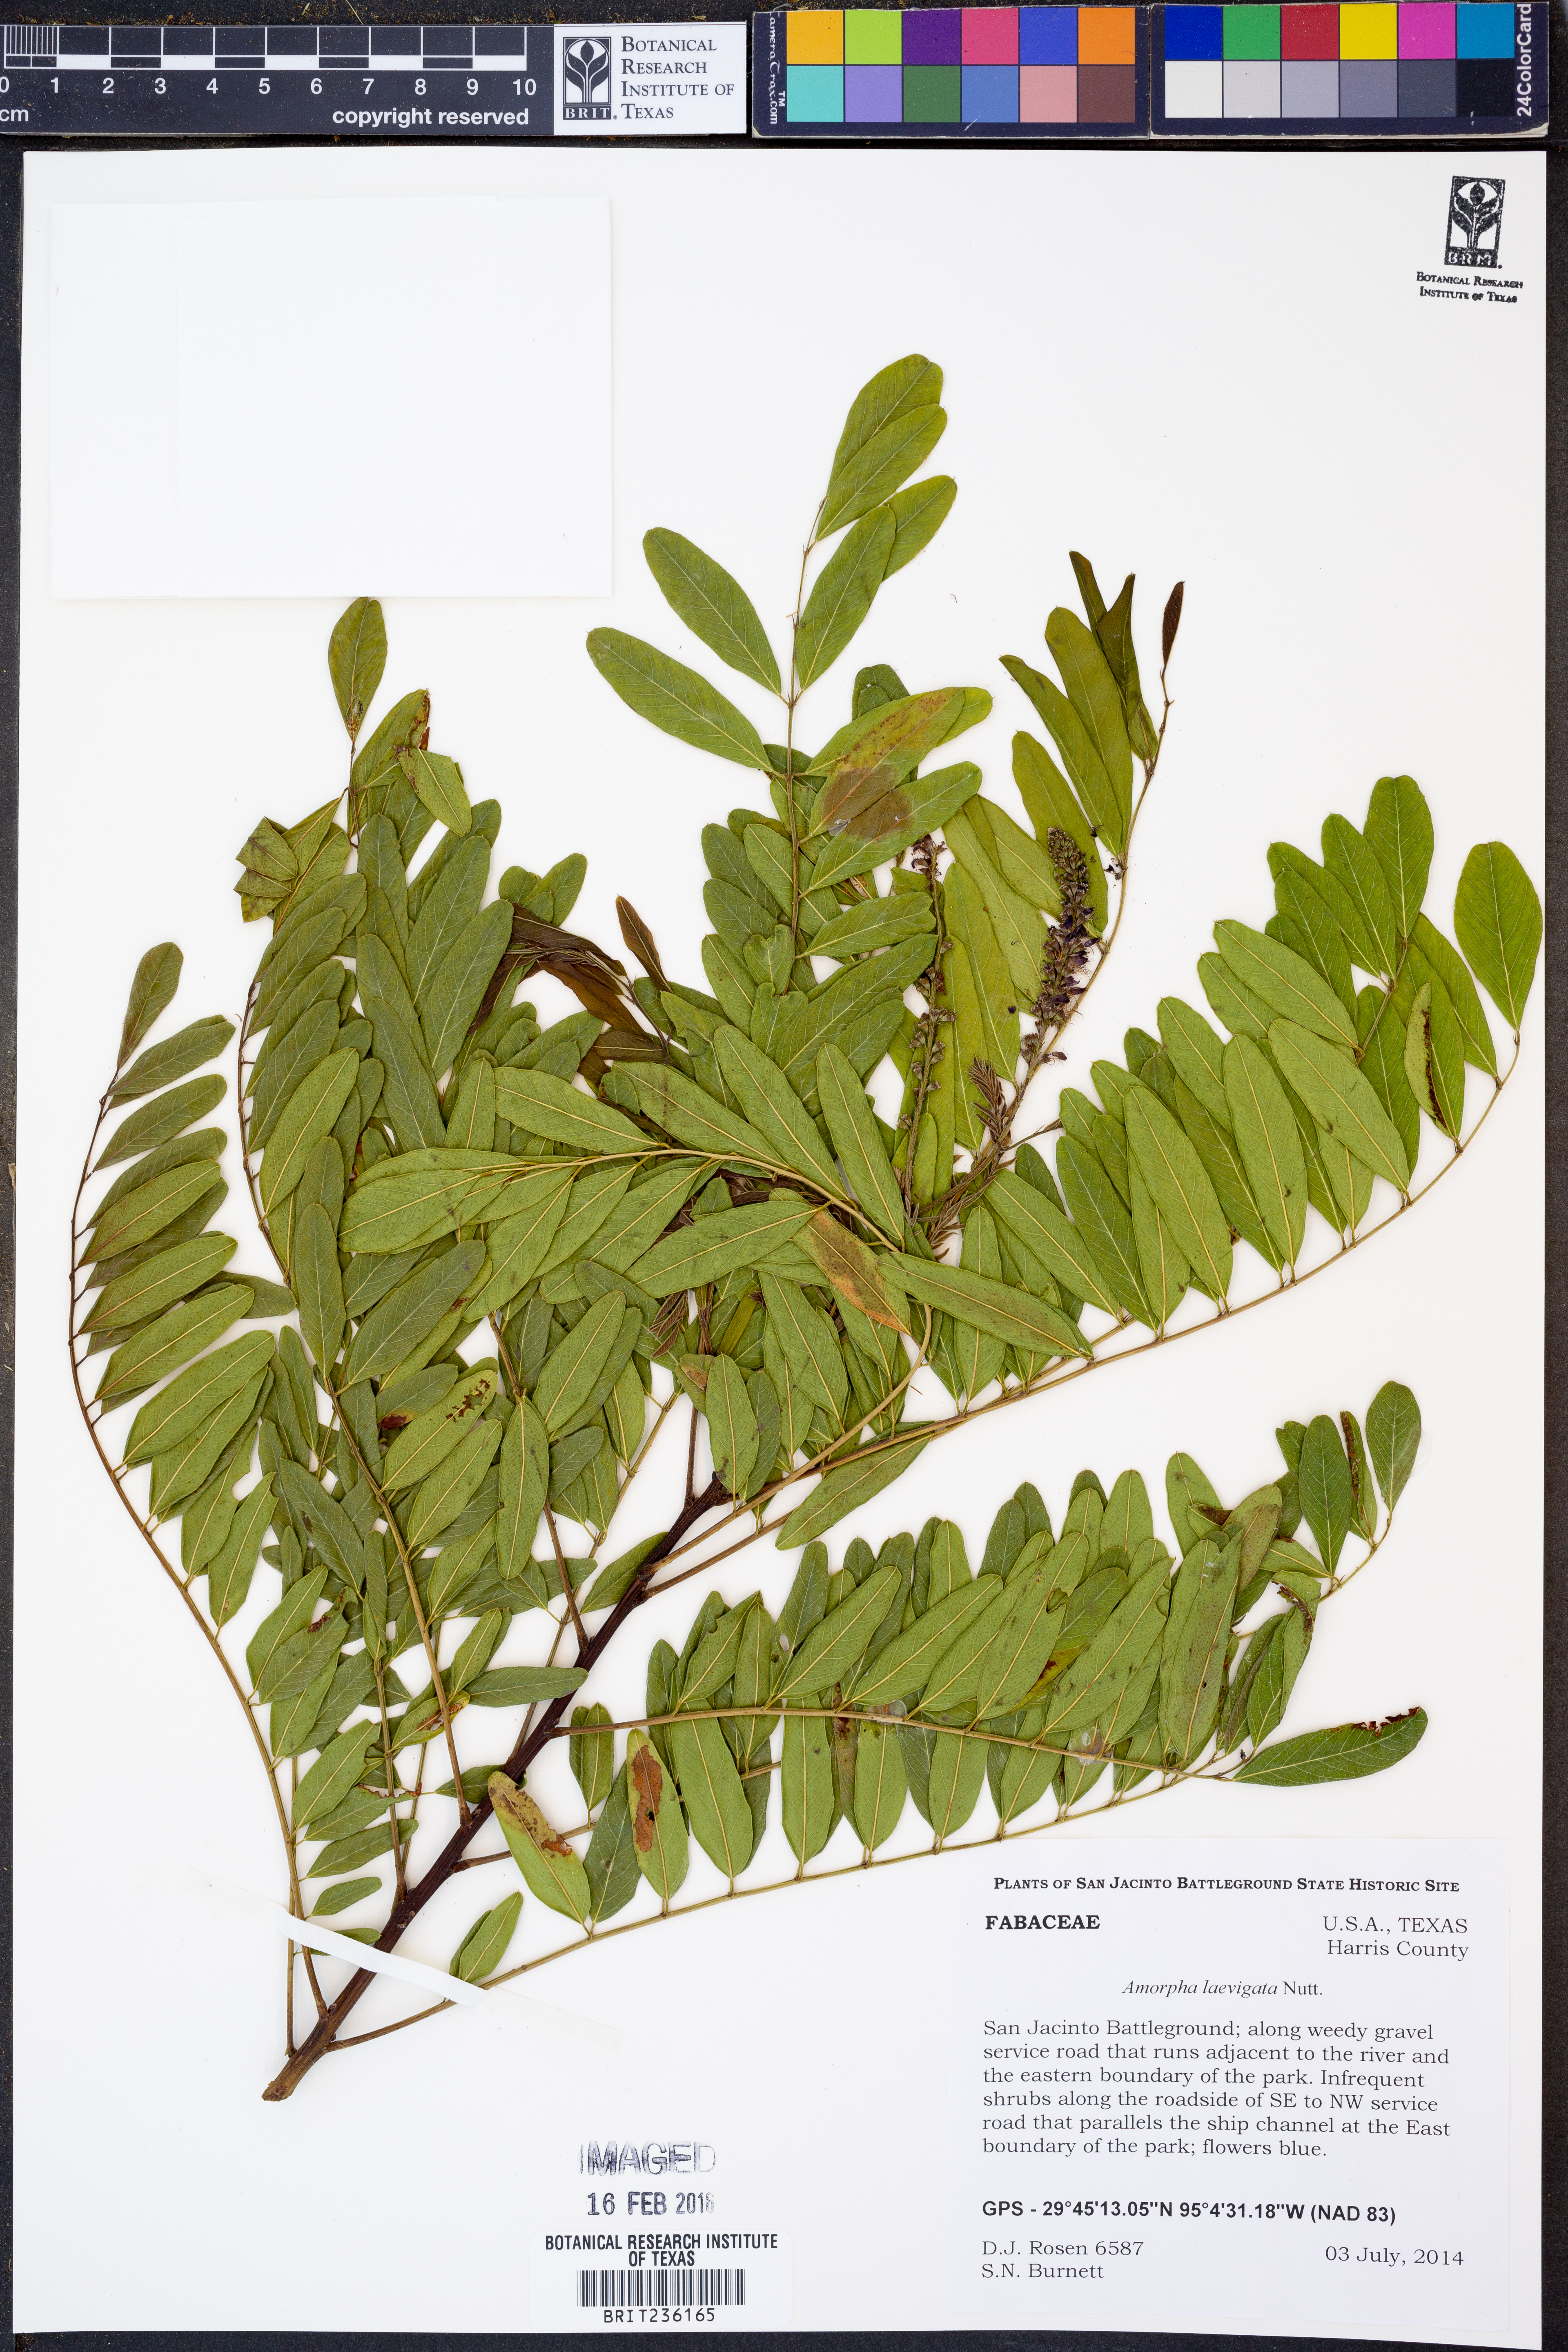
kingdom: Plantae
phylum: Tracheophyta
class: Magnoliopsida
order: Fabales
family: Fabaceae
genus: Amorpha
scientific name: Amorpha laevigata
